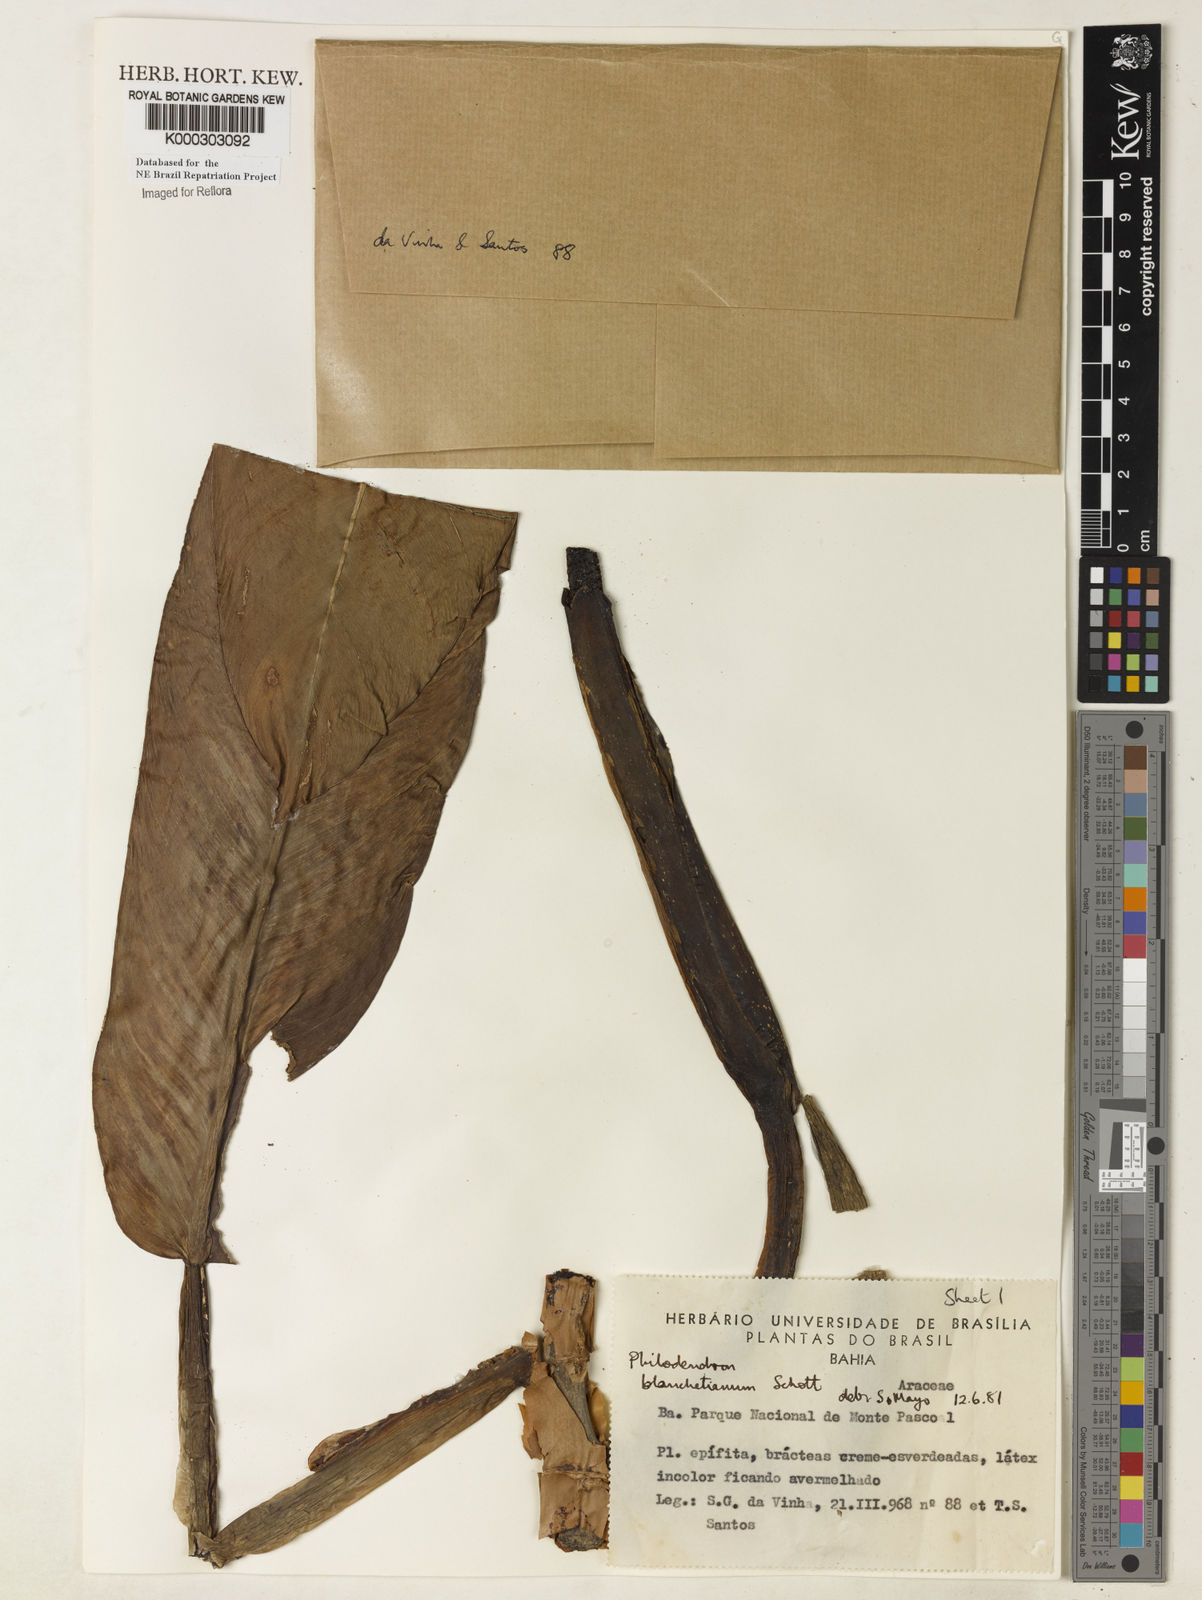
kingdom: Plantae
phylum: Tracheophyta
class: Liliopsida
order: Alismatales
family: Araceae
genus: Philodendron
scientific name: Philodendron blanchetianum
